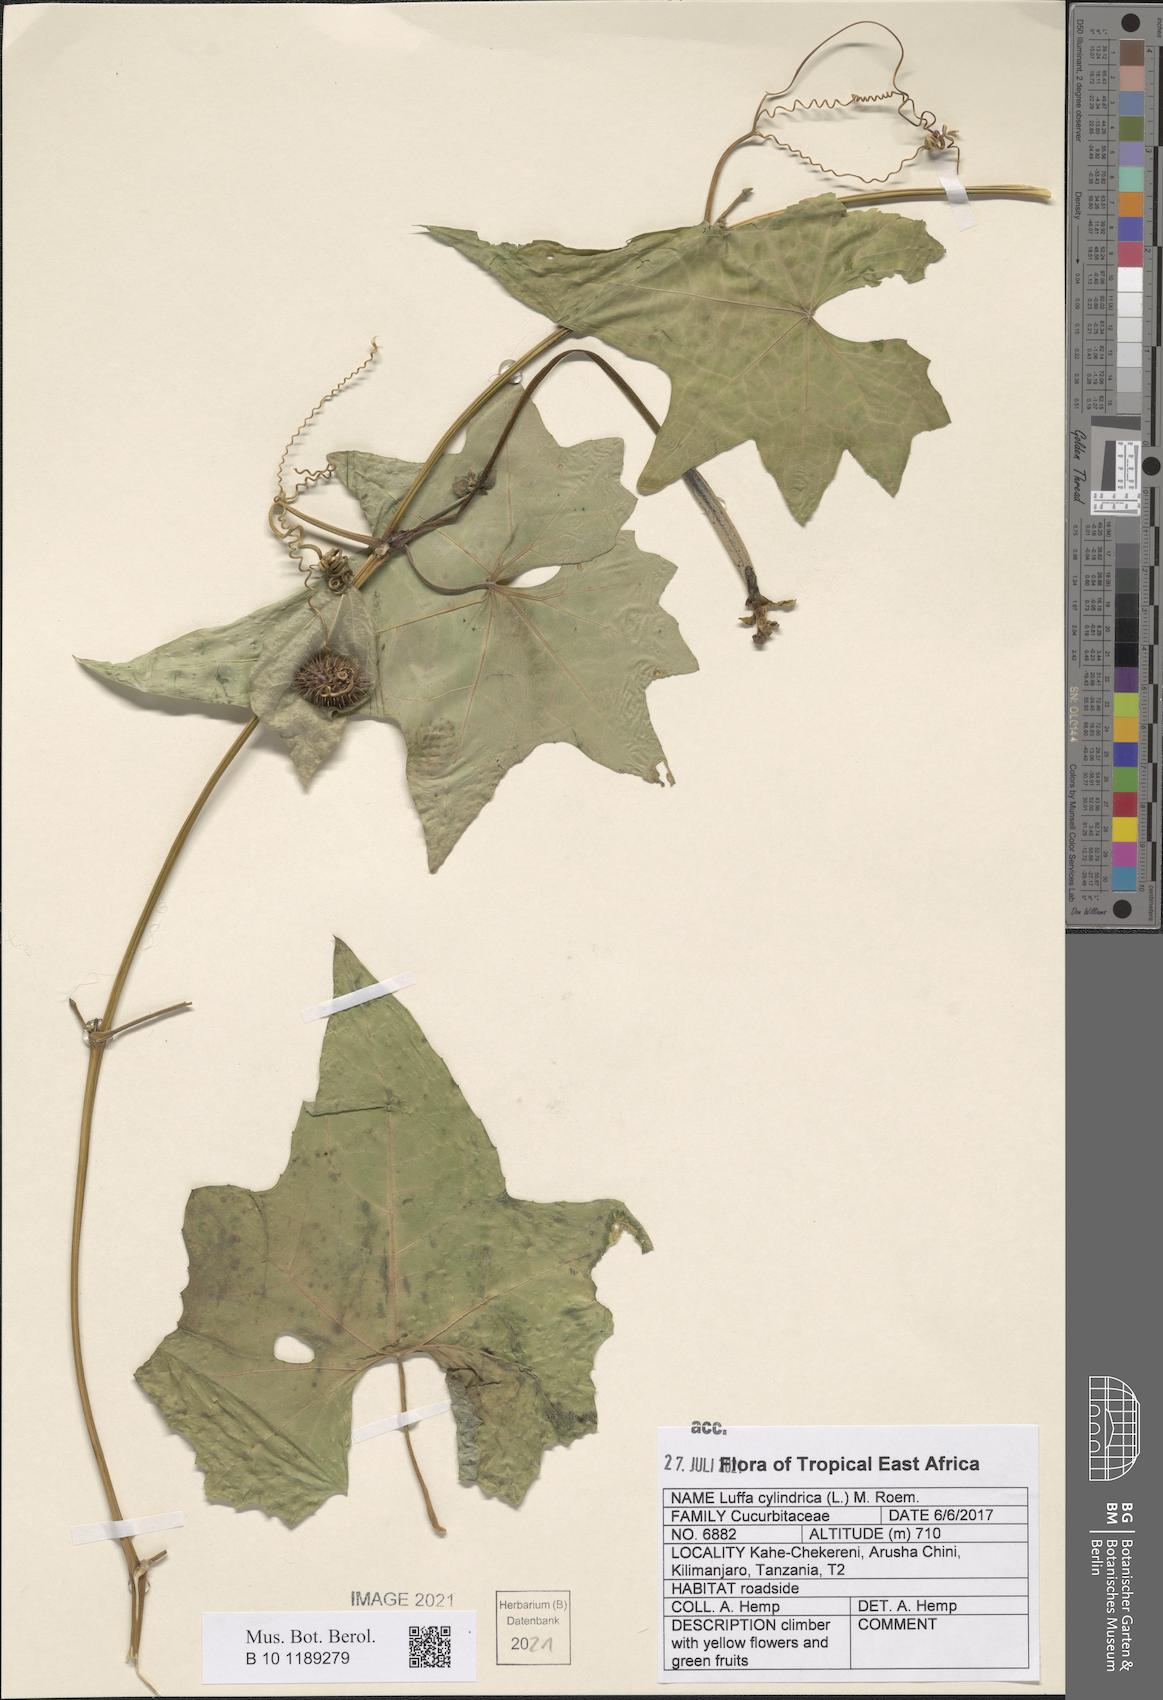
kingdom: Plantae
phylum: Tracheophyta
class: Magnoliopsida
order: Cucurbitales
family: Cucurbitaceae
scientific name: Cucurbitaceae
